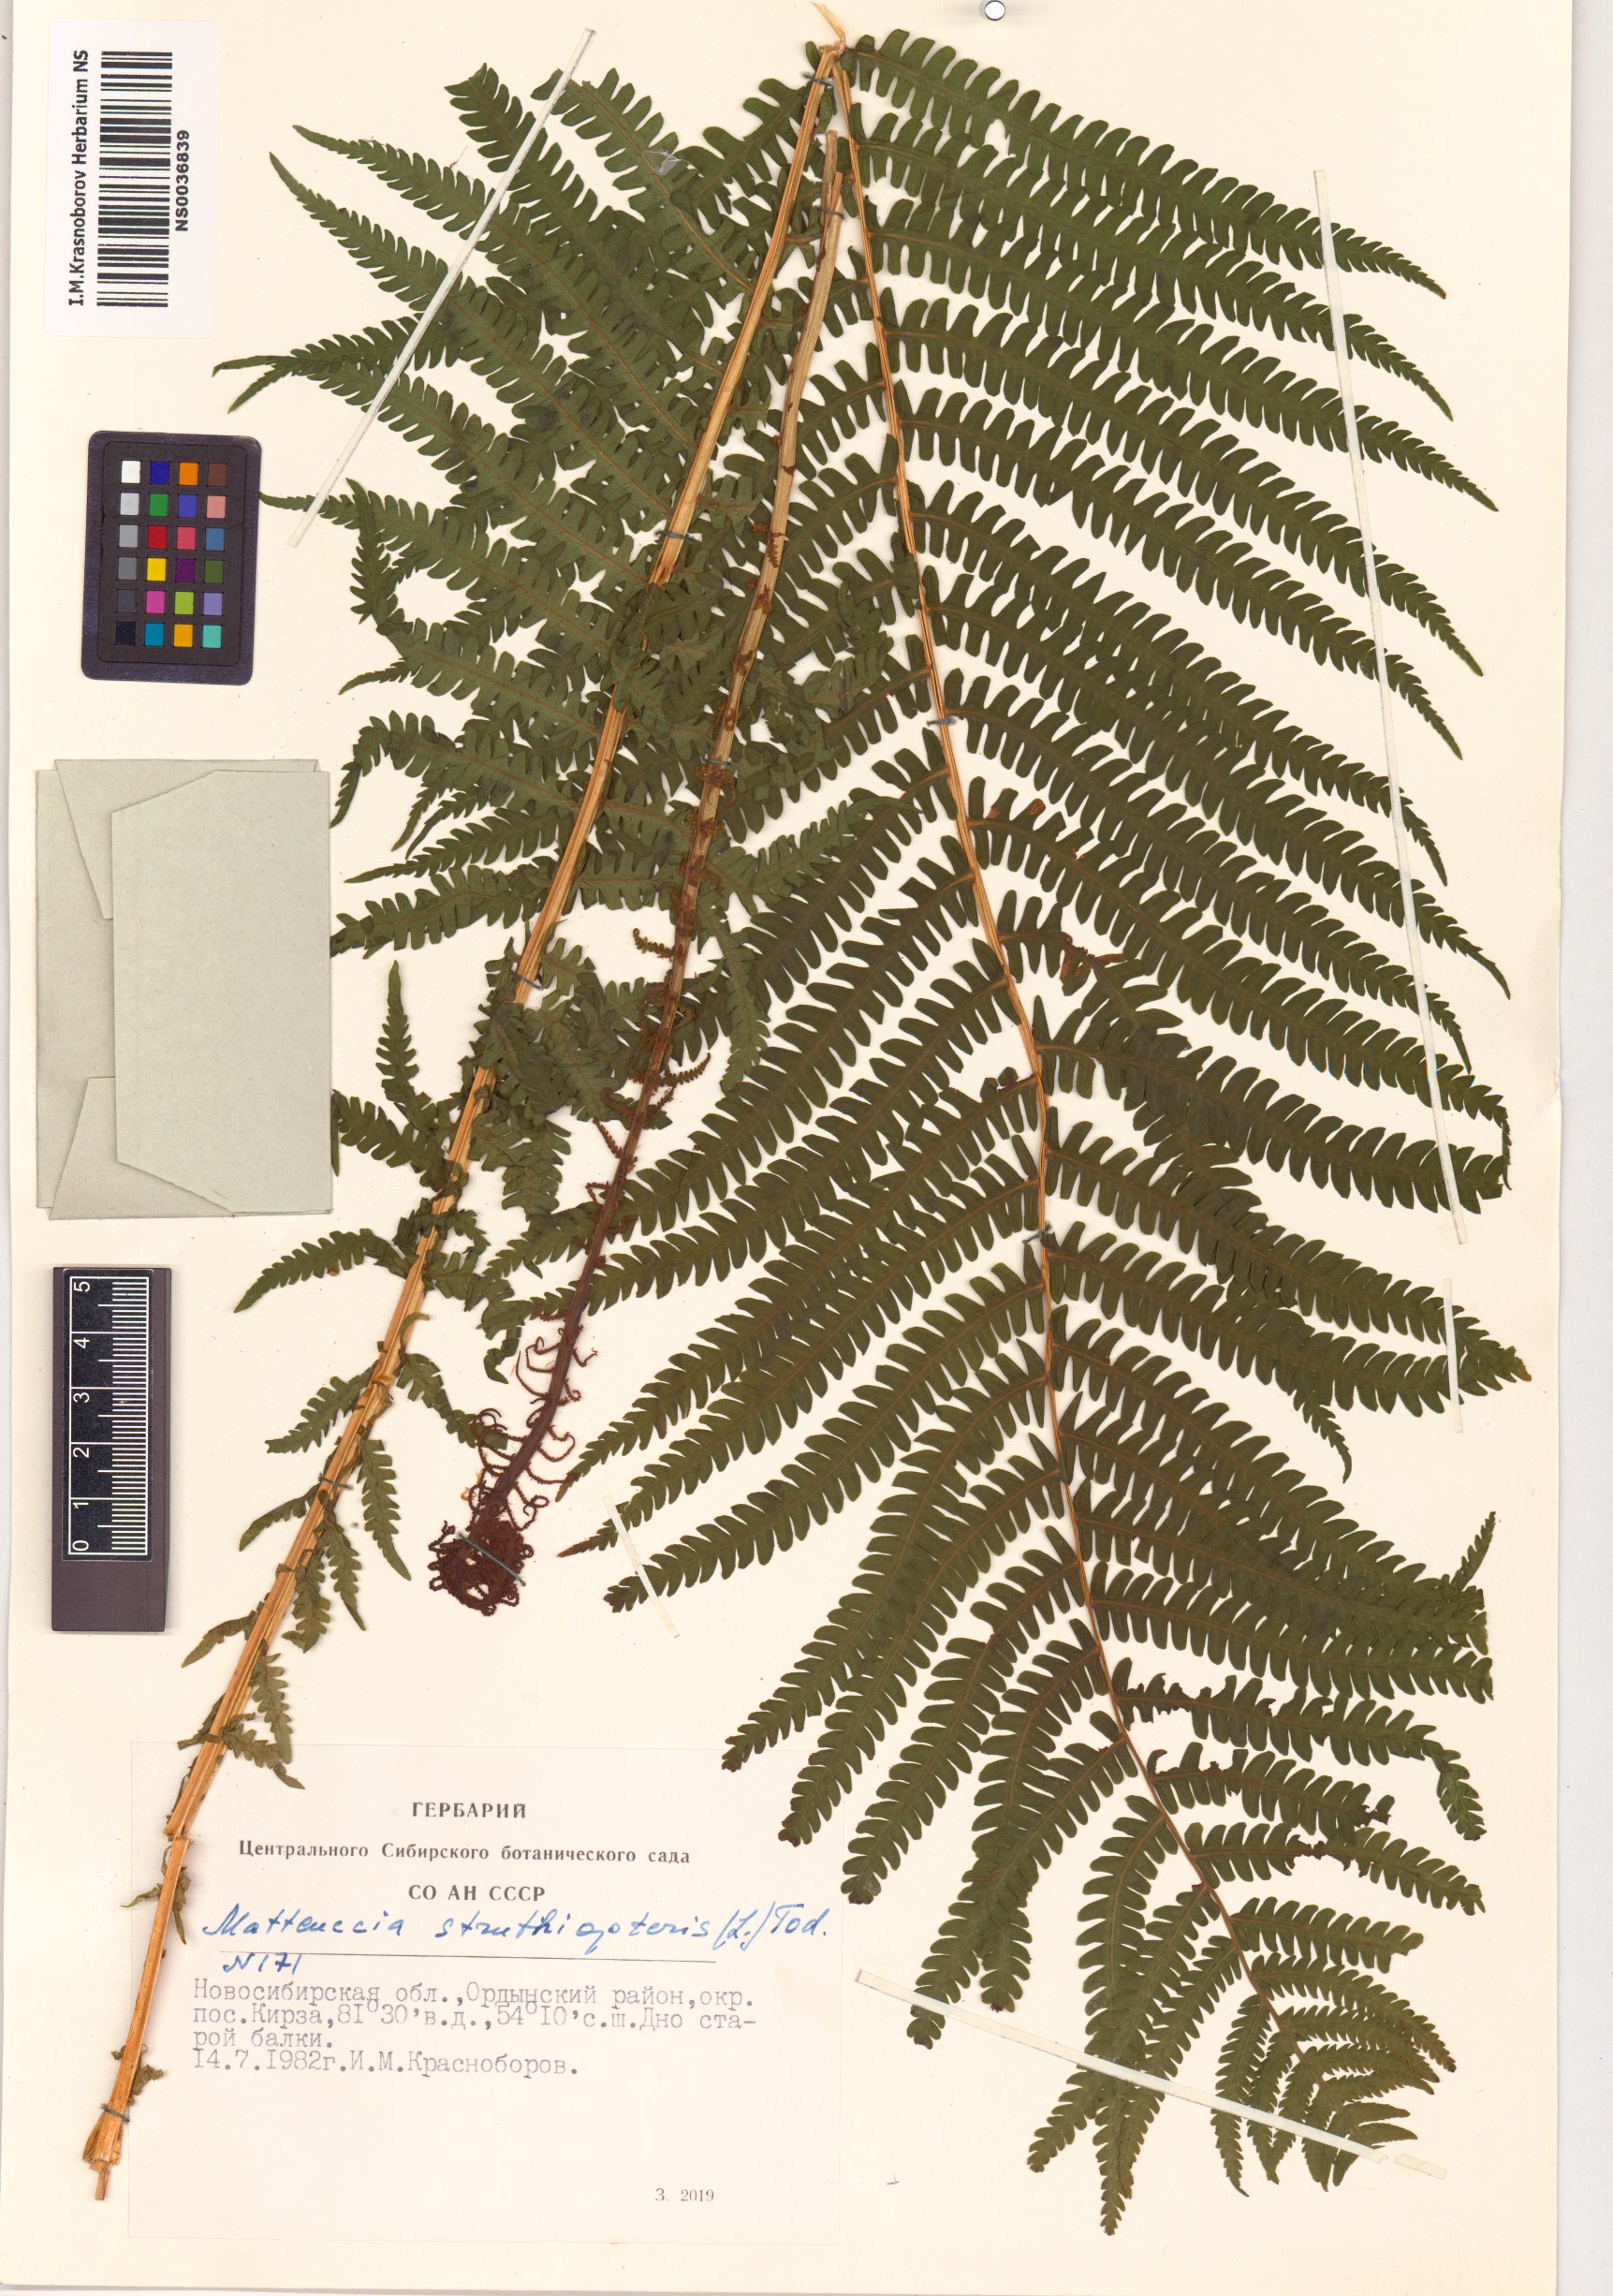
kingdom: Plantae
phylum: Tracheophyta
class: Polypodiopsida
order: Polypodiales
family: Onocleaceae
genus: Matteuccia
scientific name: Matteuccia struthiopteris
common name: Ostrich fern
